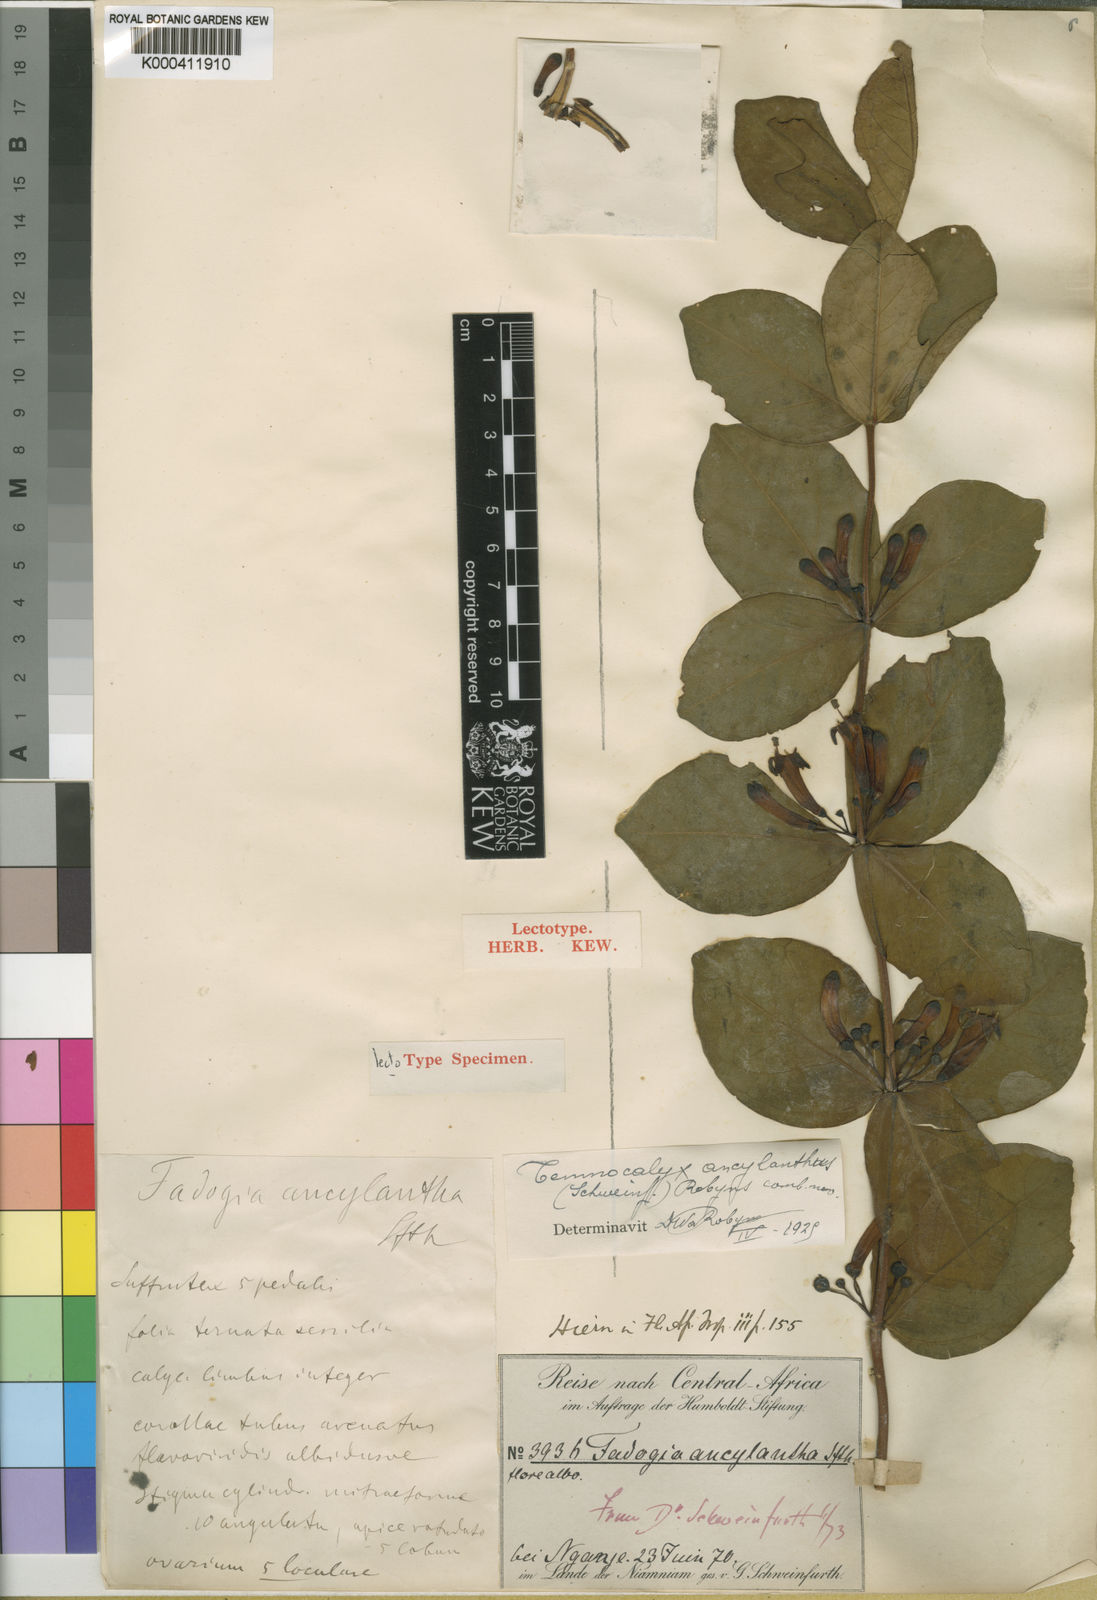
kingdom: Plantae
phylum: Tracheophyta
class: Magnoliopsida
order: Gentianales
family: Rubiaceae
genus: Fadogia
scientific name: Fadogia
